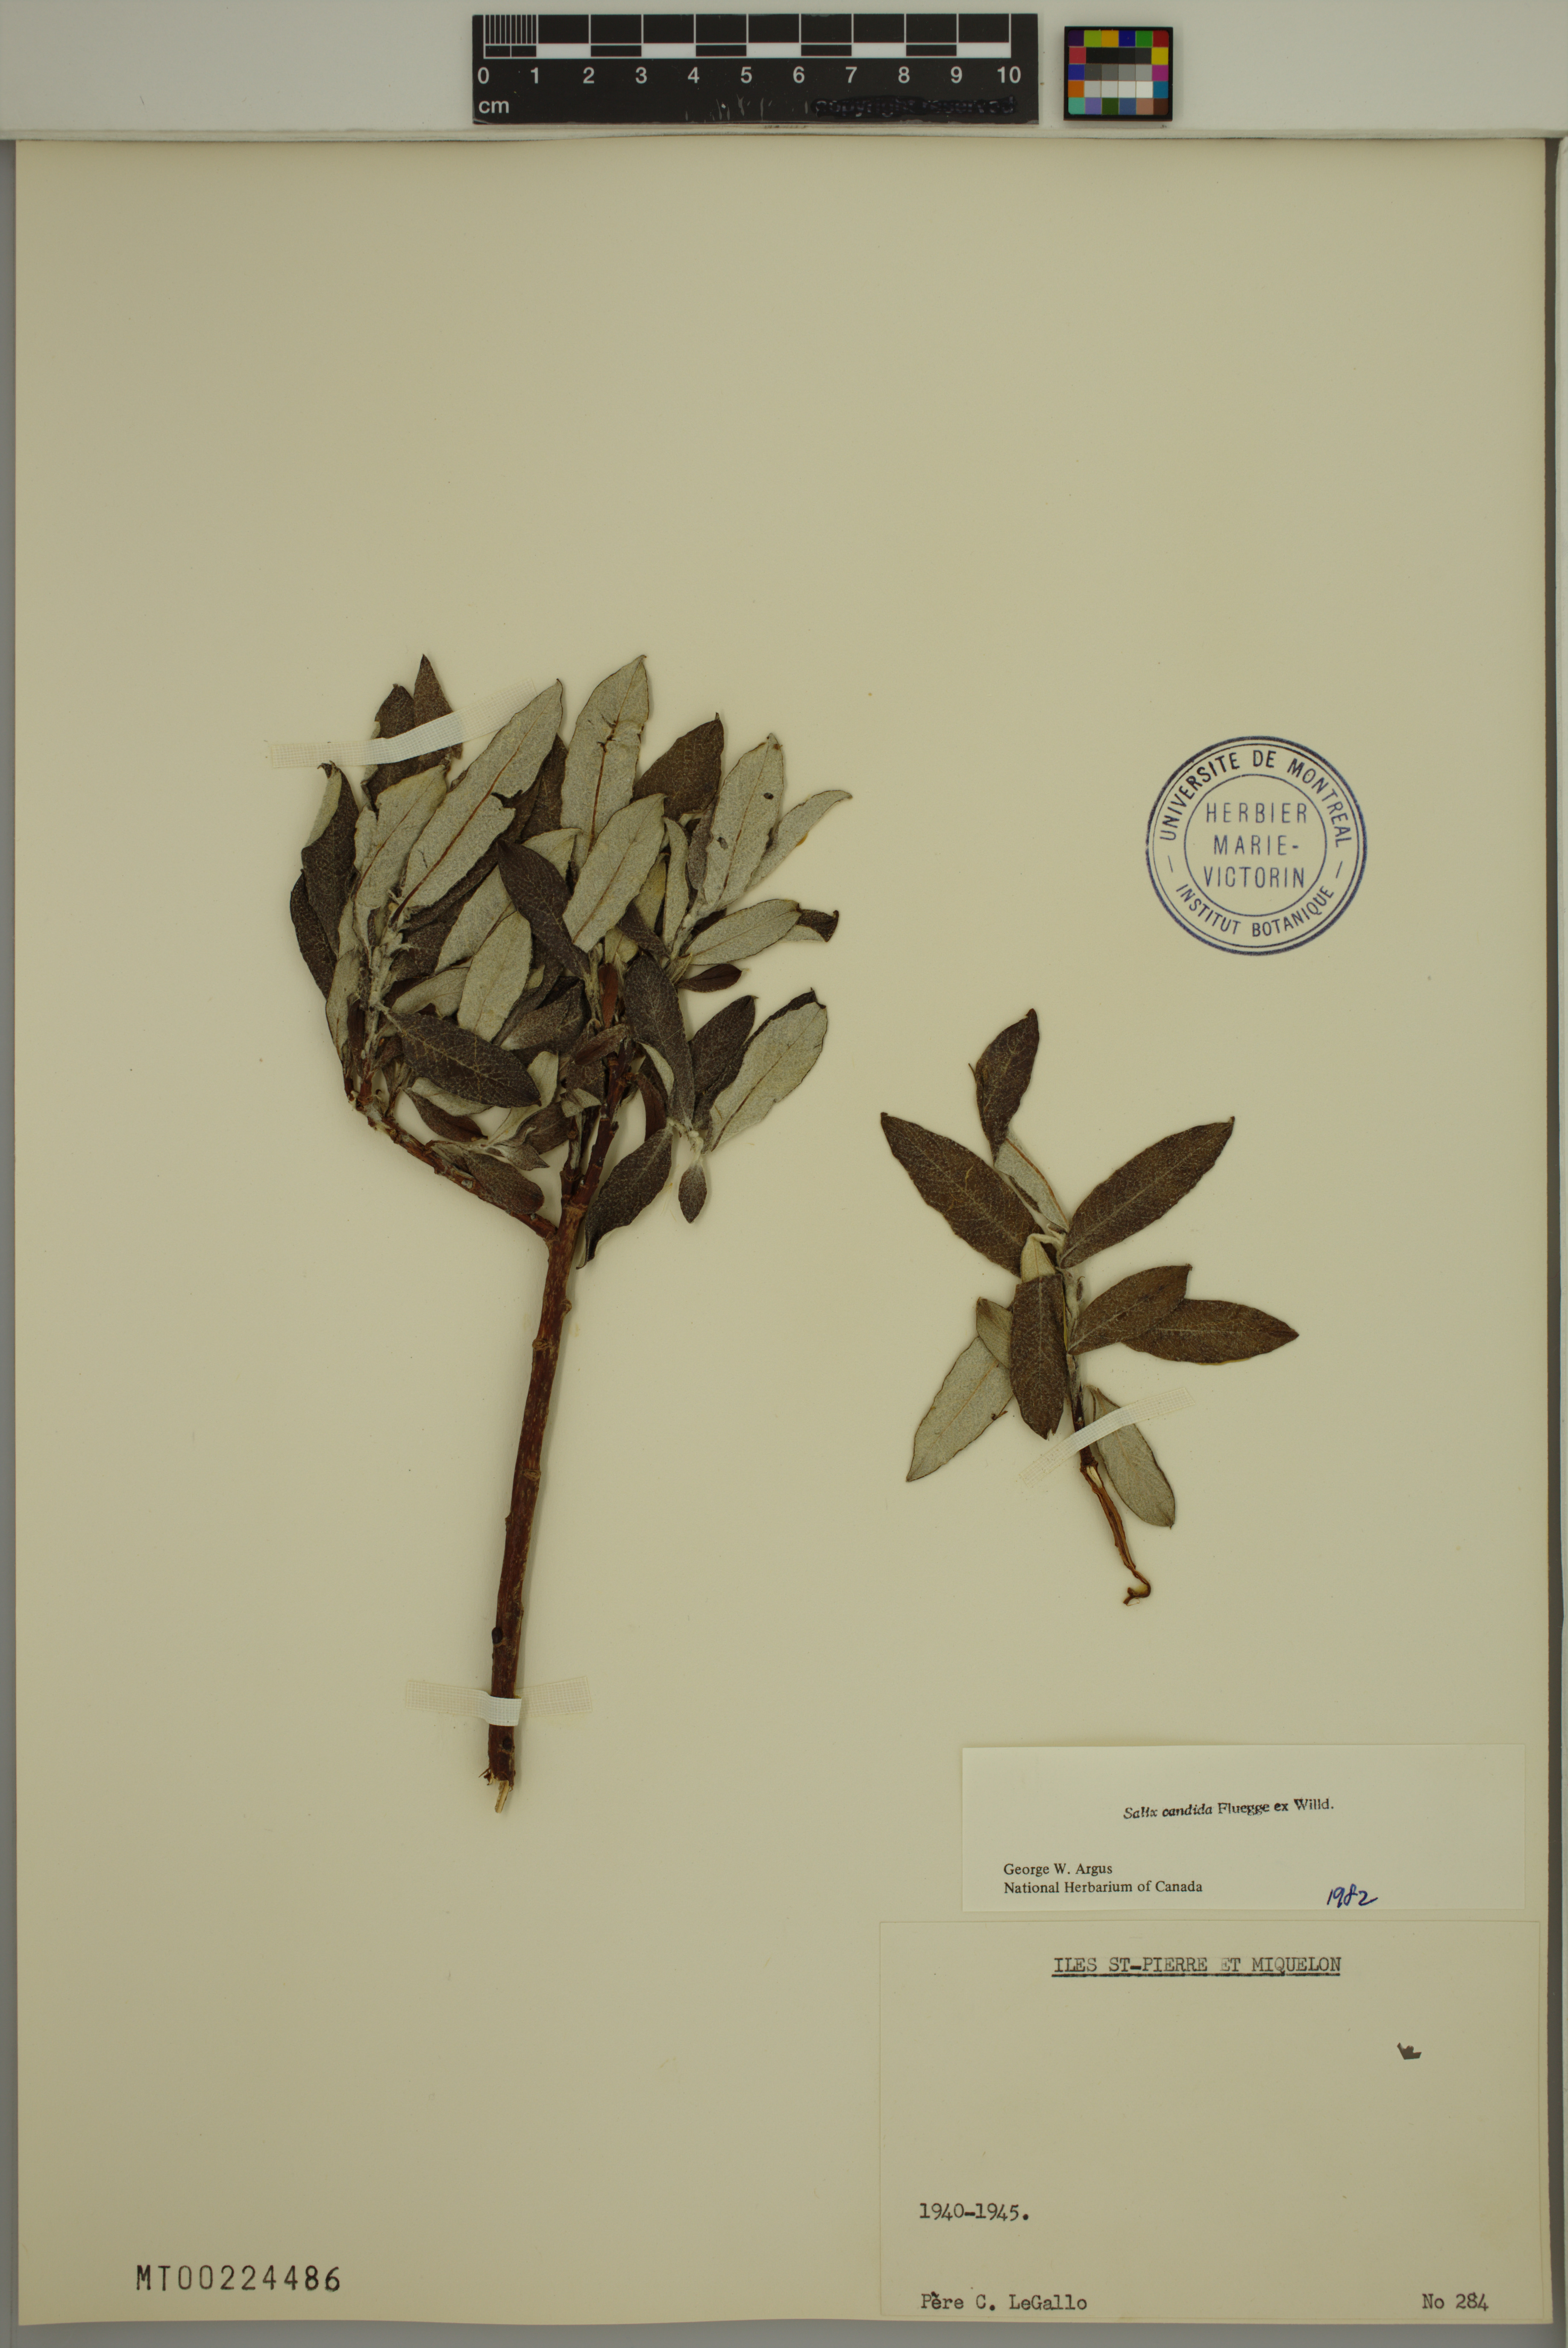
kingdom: Plantae
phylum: Tracheophyta
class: Magnoliopsida
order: Malpighiales
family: Salicaceae
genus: Salix
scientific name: Salix candida
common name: Hoary willow
